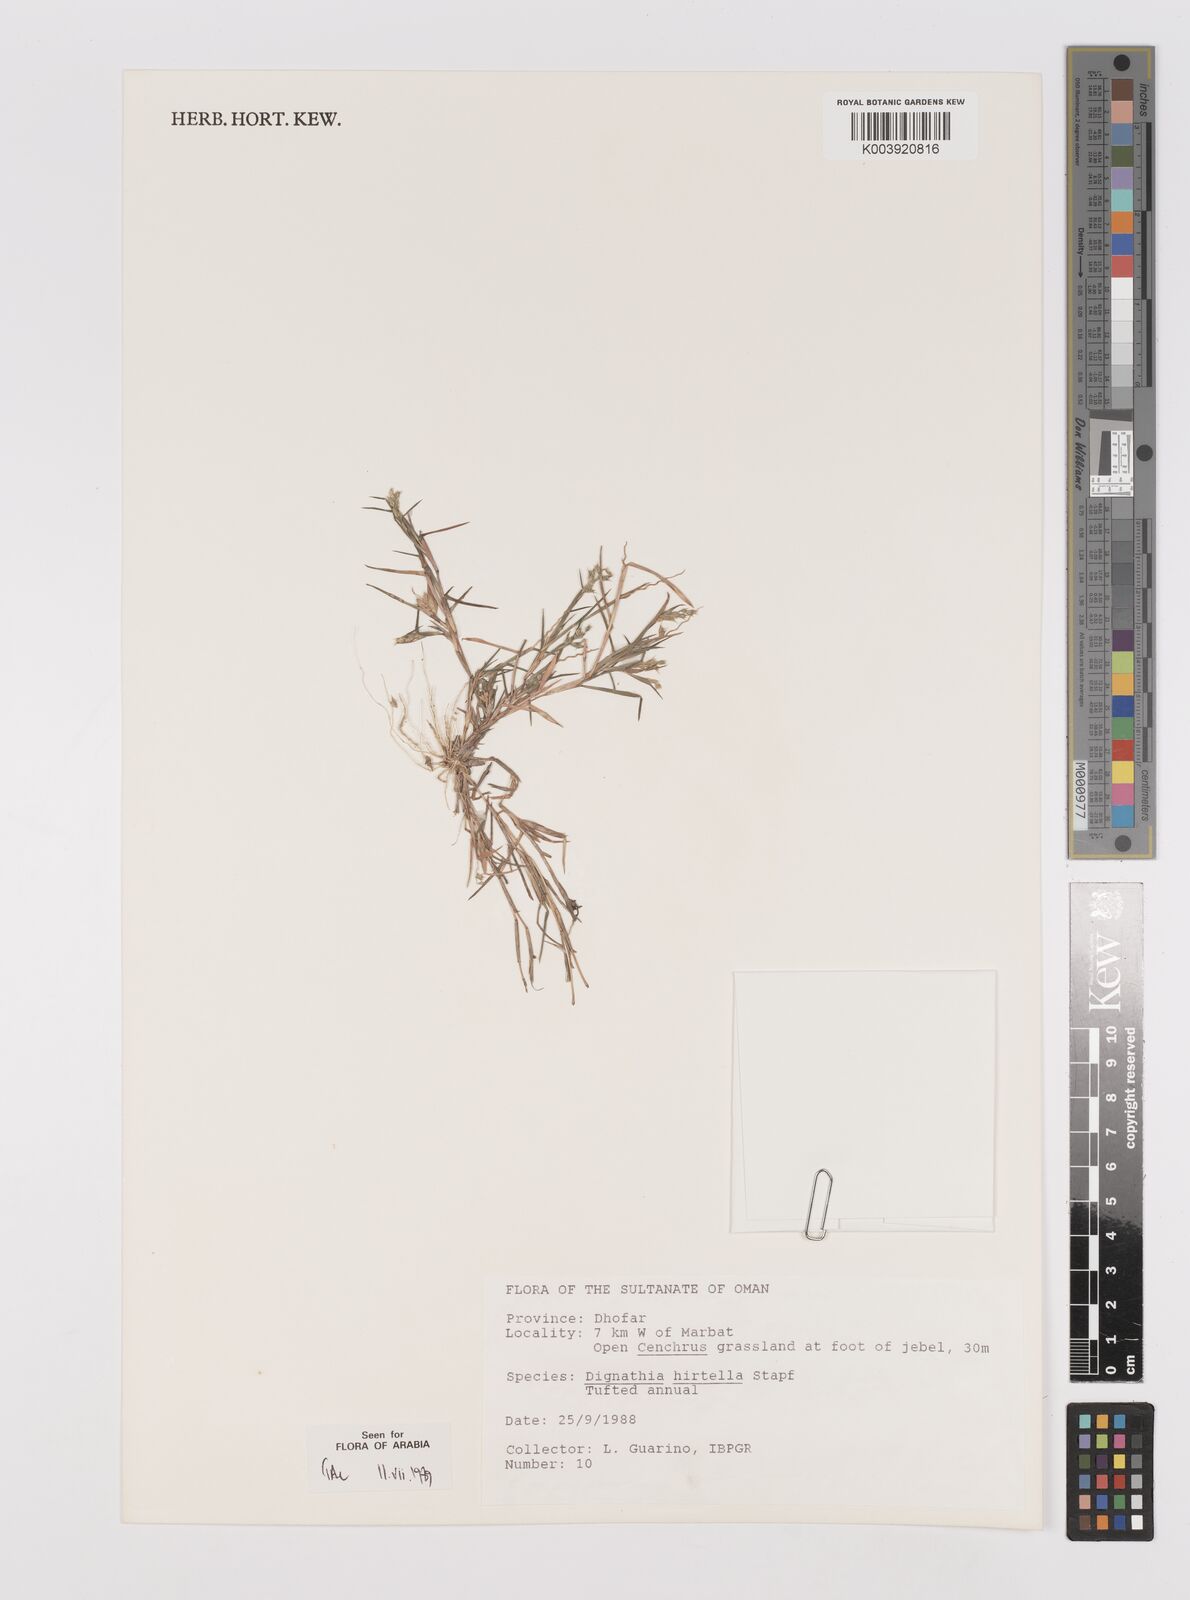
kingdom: Plantae
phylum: Tracheophyta
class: Liliopsida
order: Poales
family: Poaceae
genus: Dignathia
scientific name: Dignathia hirtella
